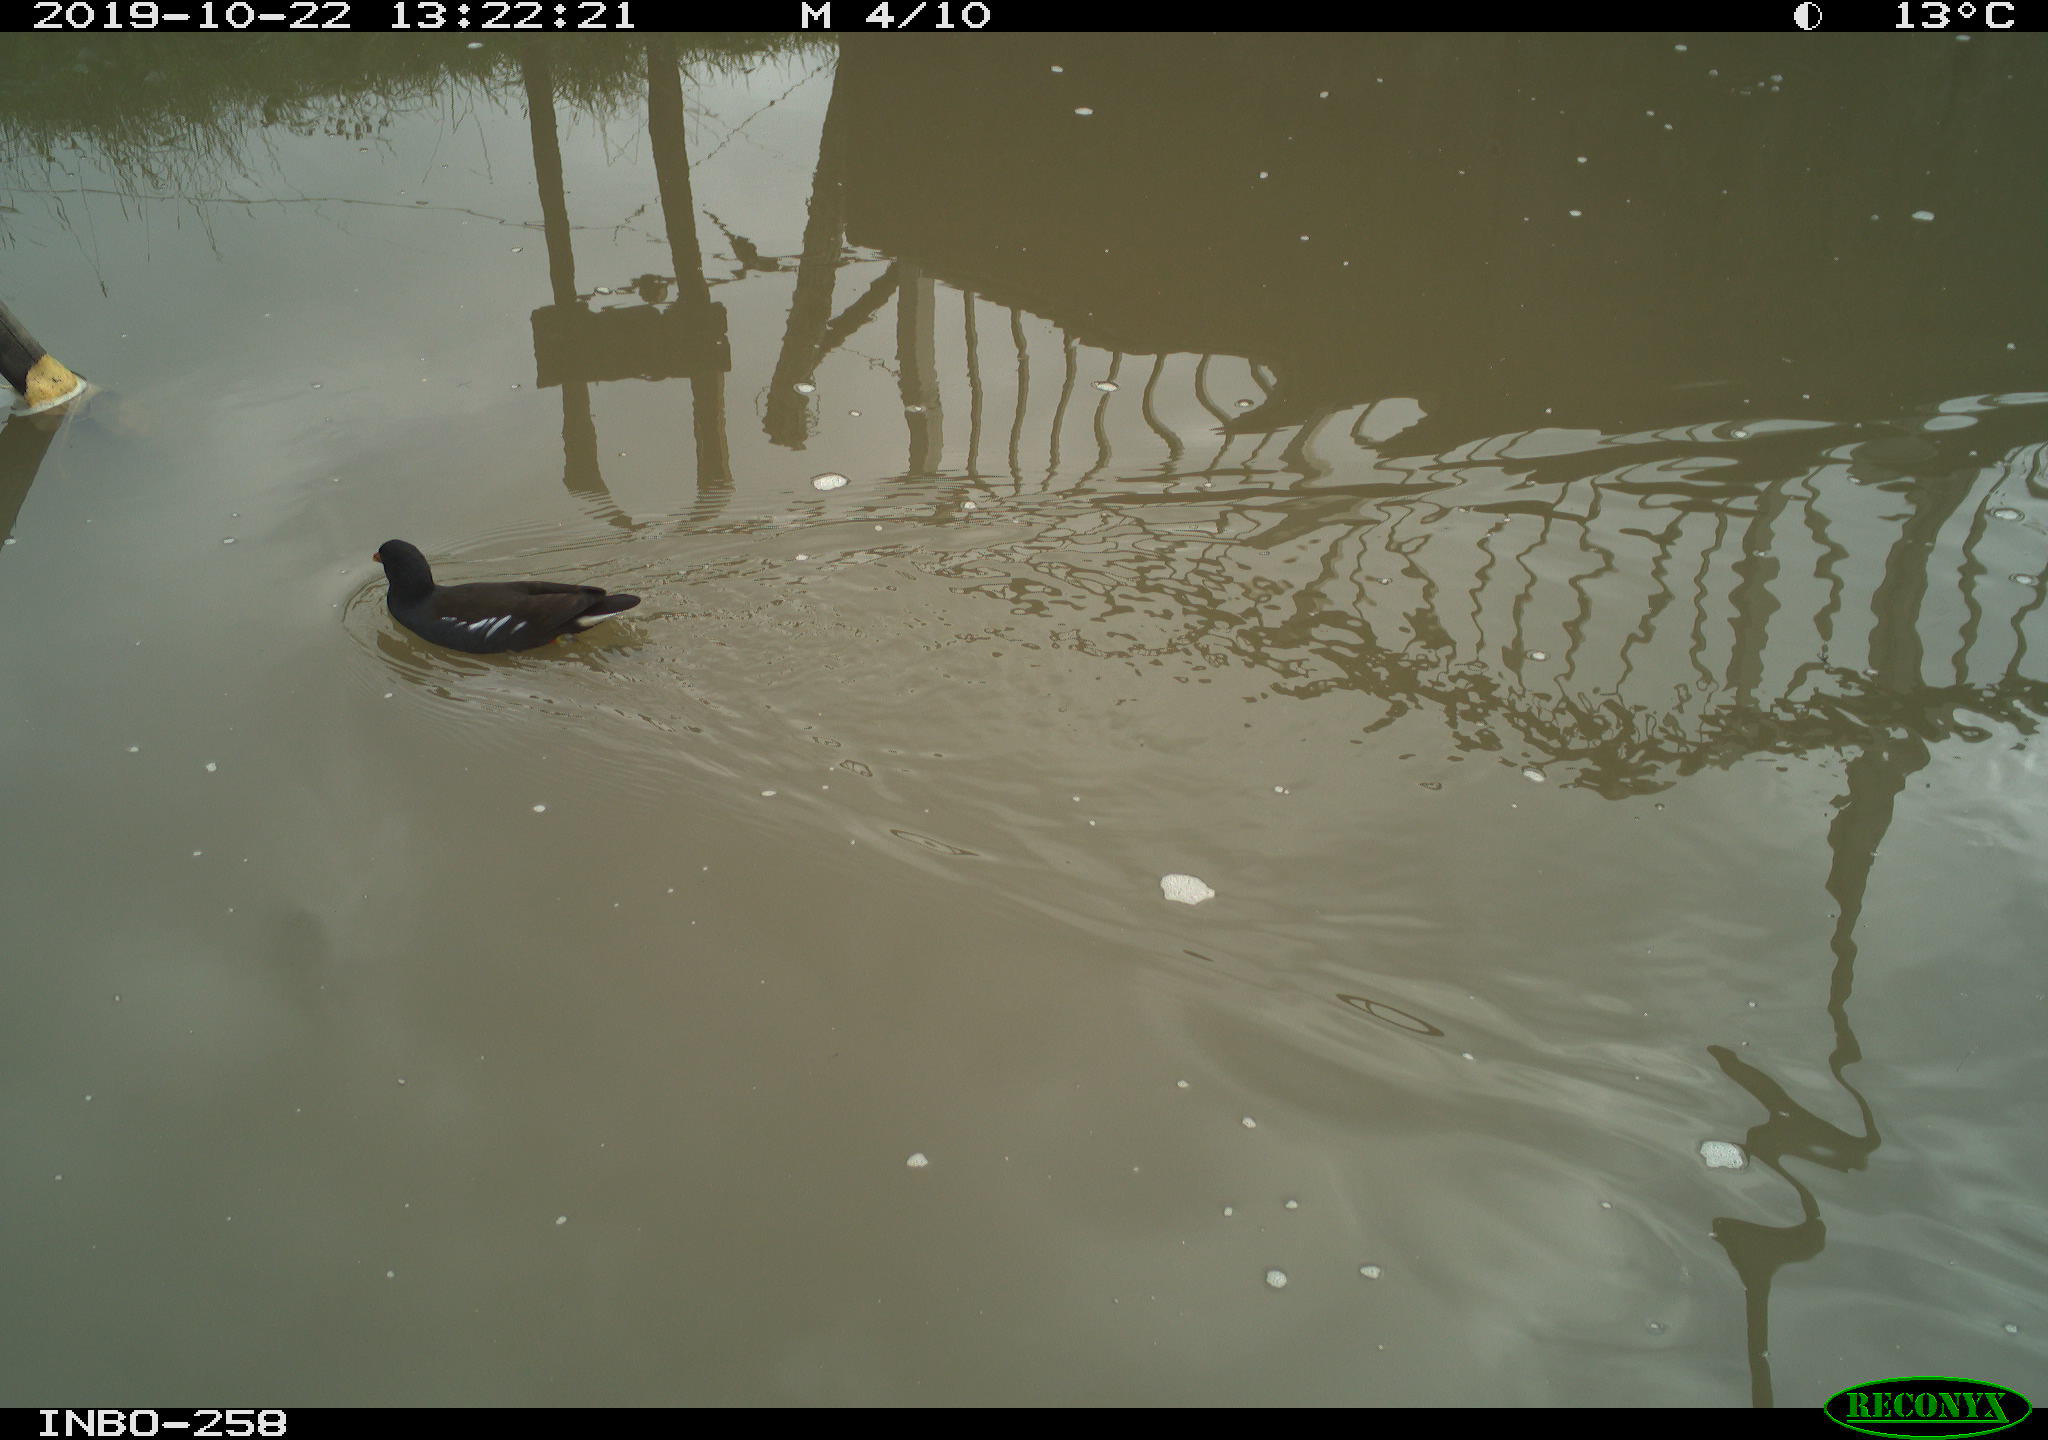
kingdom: Animalia
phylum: Chordata
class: Aves
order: Gruiformes
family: Rallidae
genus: Gallinula
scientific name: Gallinula chloropus
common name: Common moorhen
